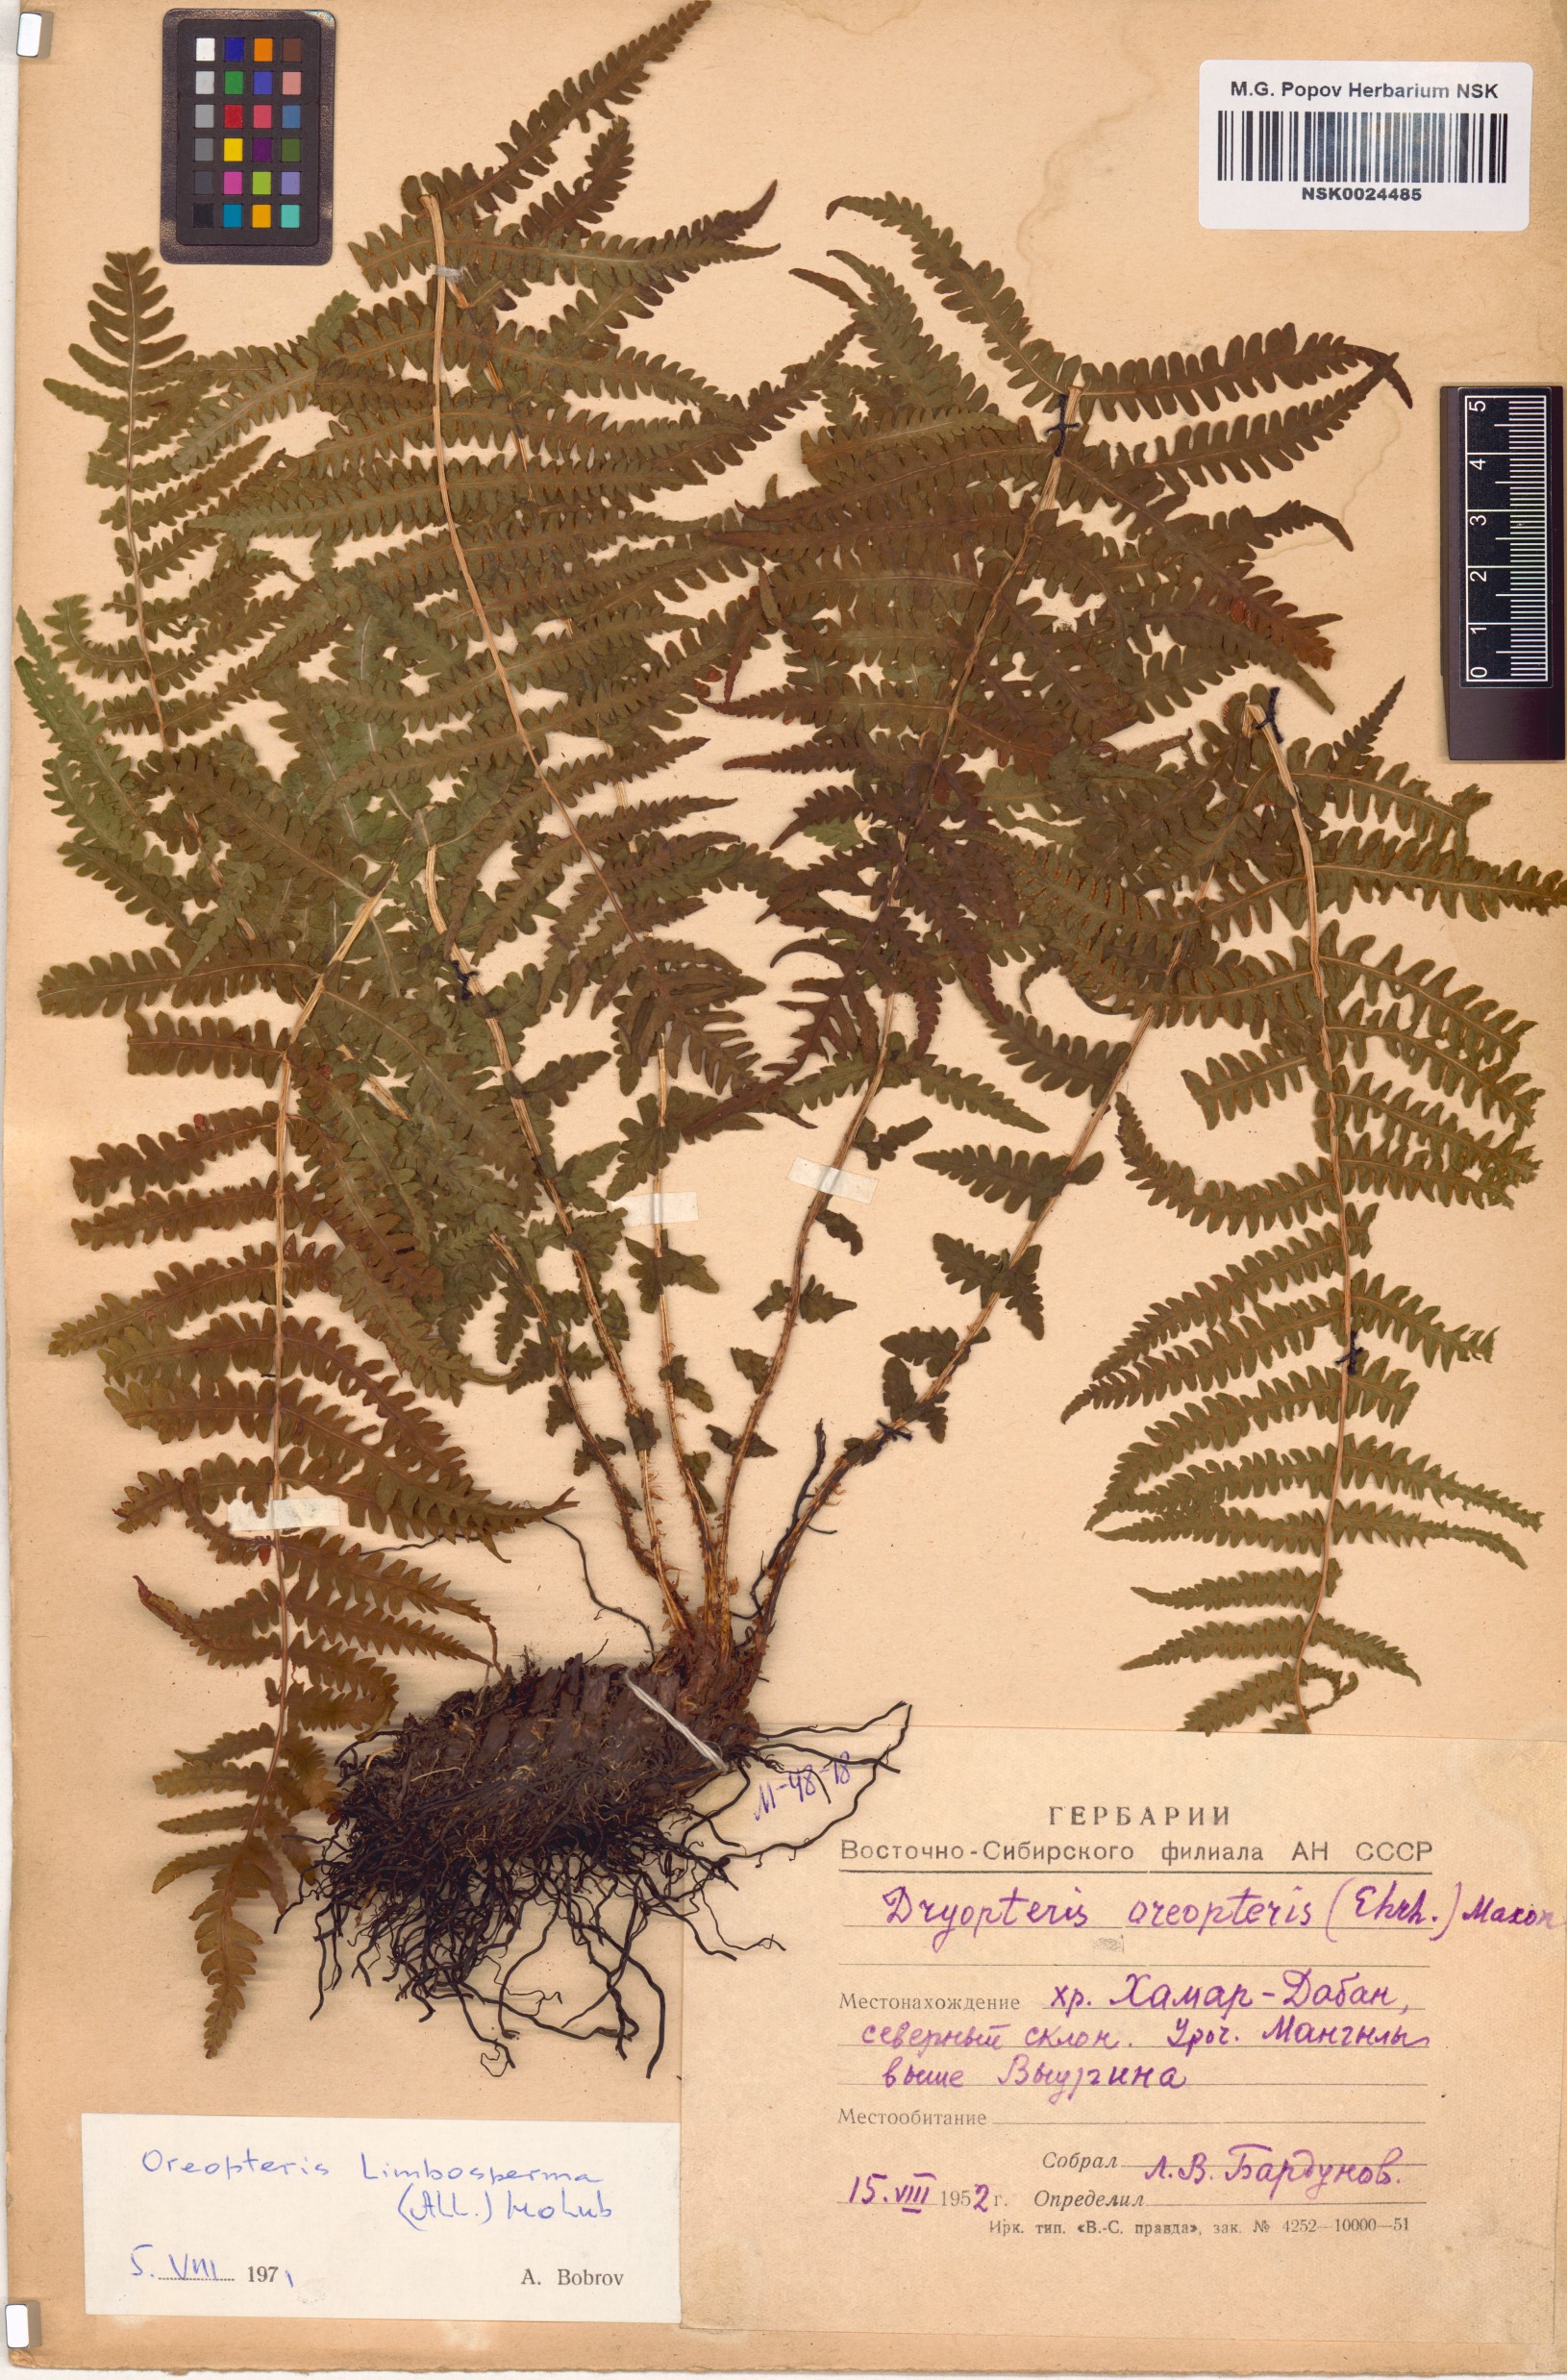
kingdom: Plantae
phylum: Tracheophyta
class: Polypodiopsida
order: Polypodiales
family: Thelypteridaceae
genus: Oreopteris
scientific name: Oreopteris limbosperma
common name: Lemon-scented fern
